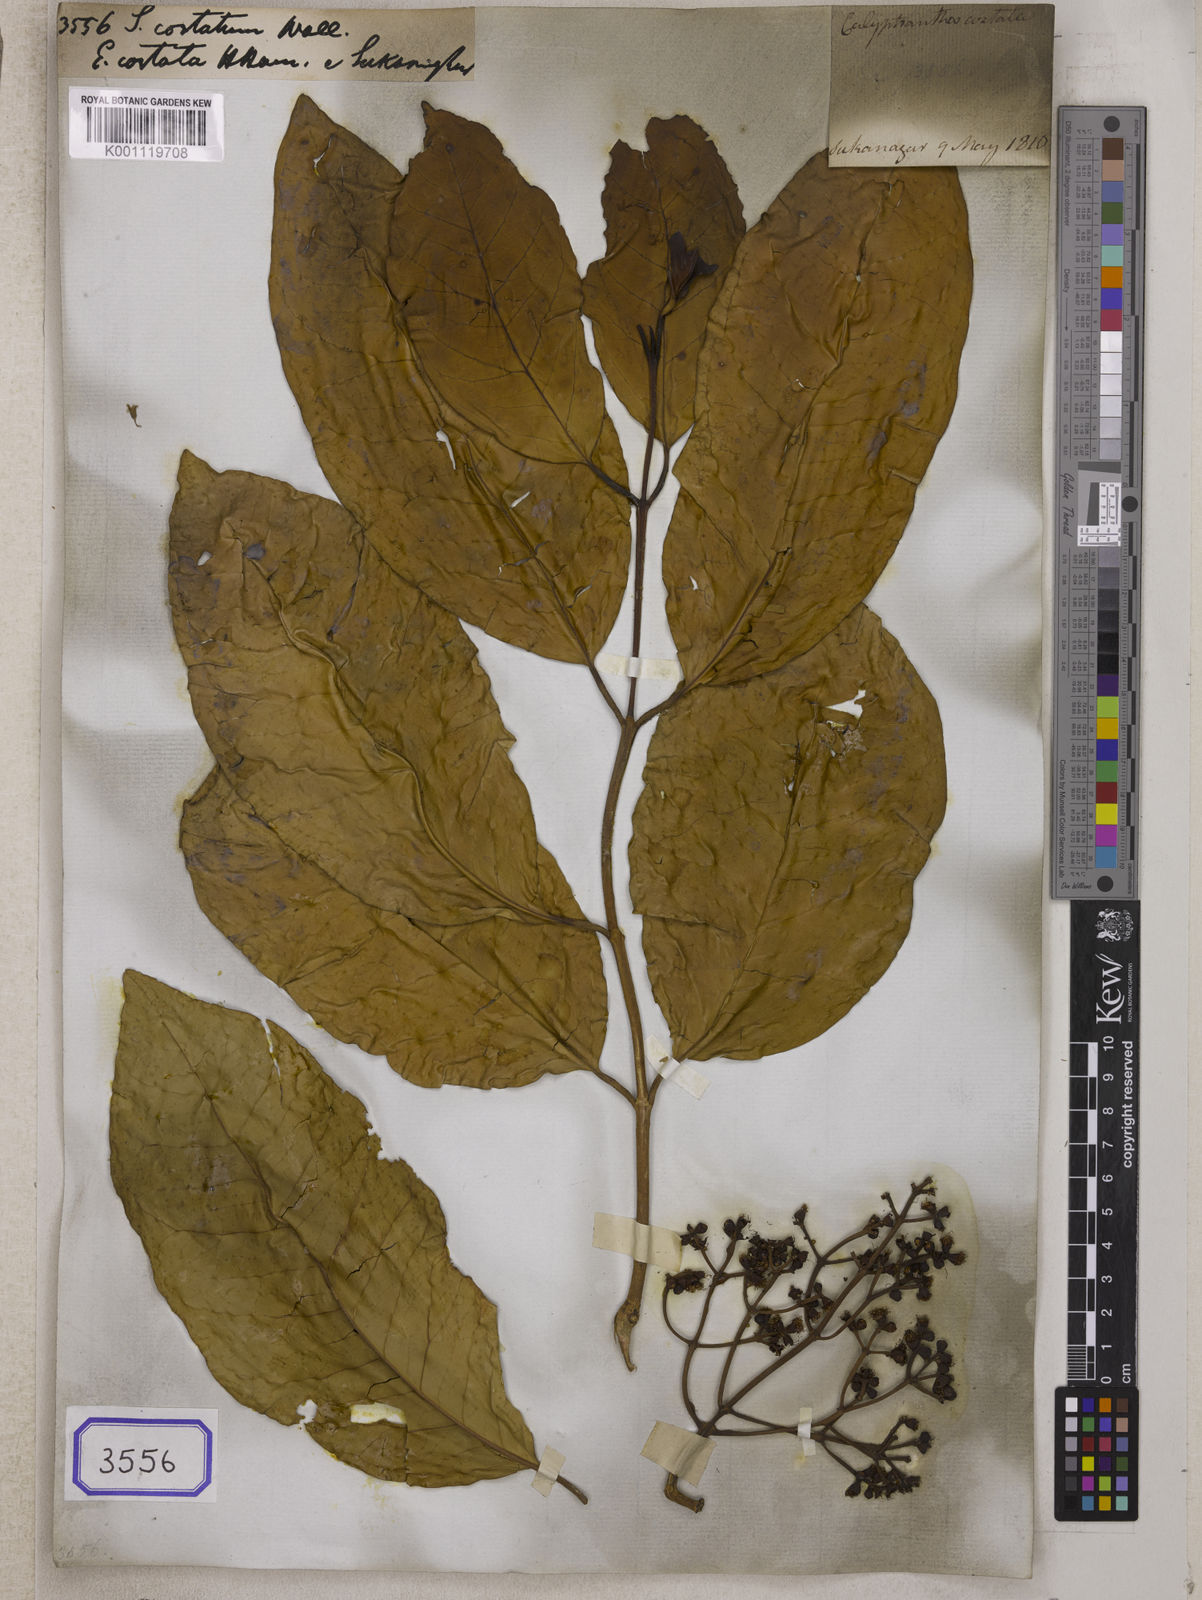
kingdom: Plantae
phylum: Tracheophyta
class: Magnoliopsida
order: Myrtales
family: Myrtaceae
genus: Syzygium
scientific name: Syzygium
